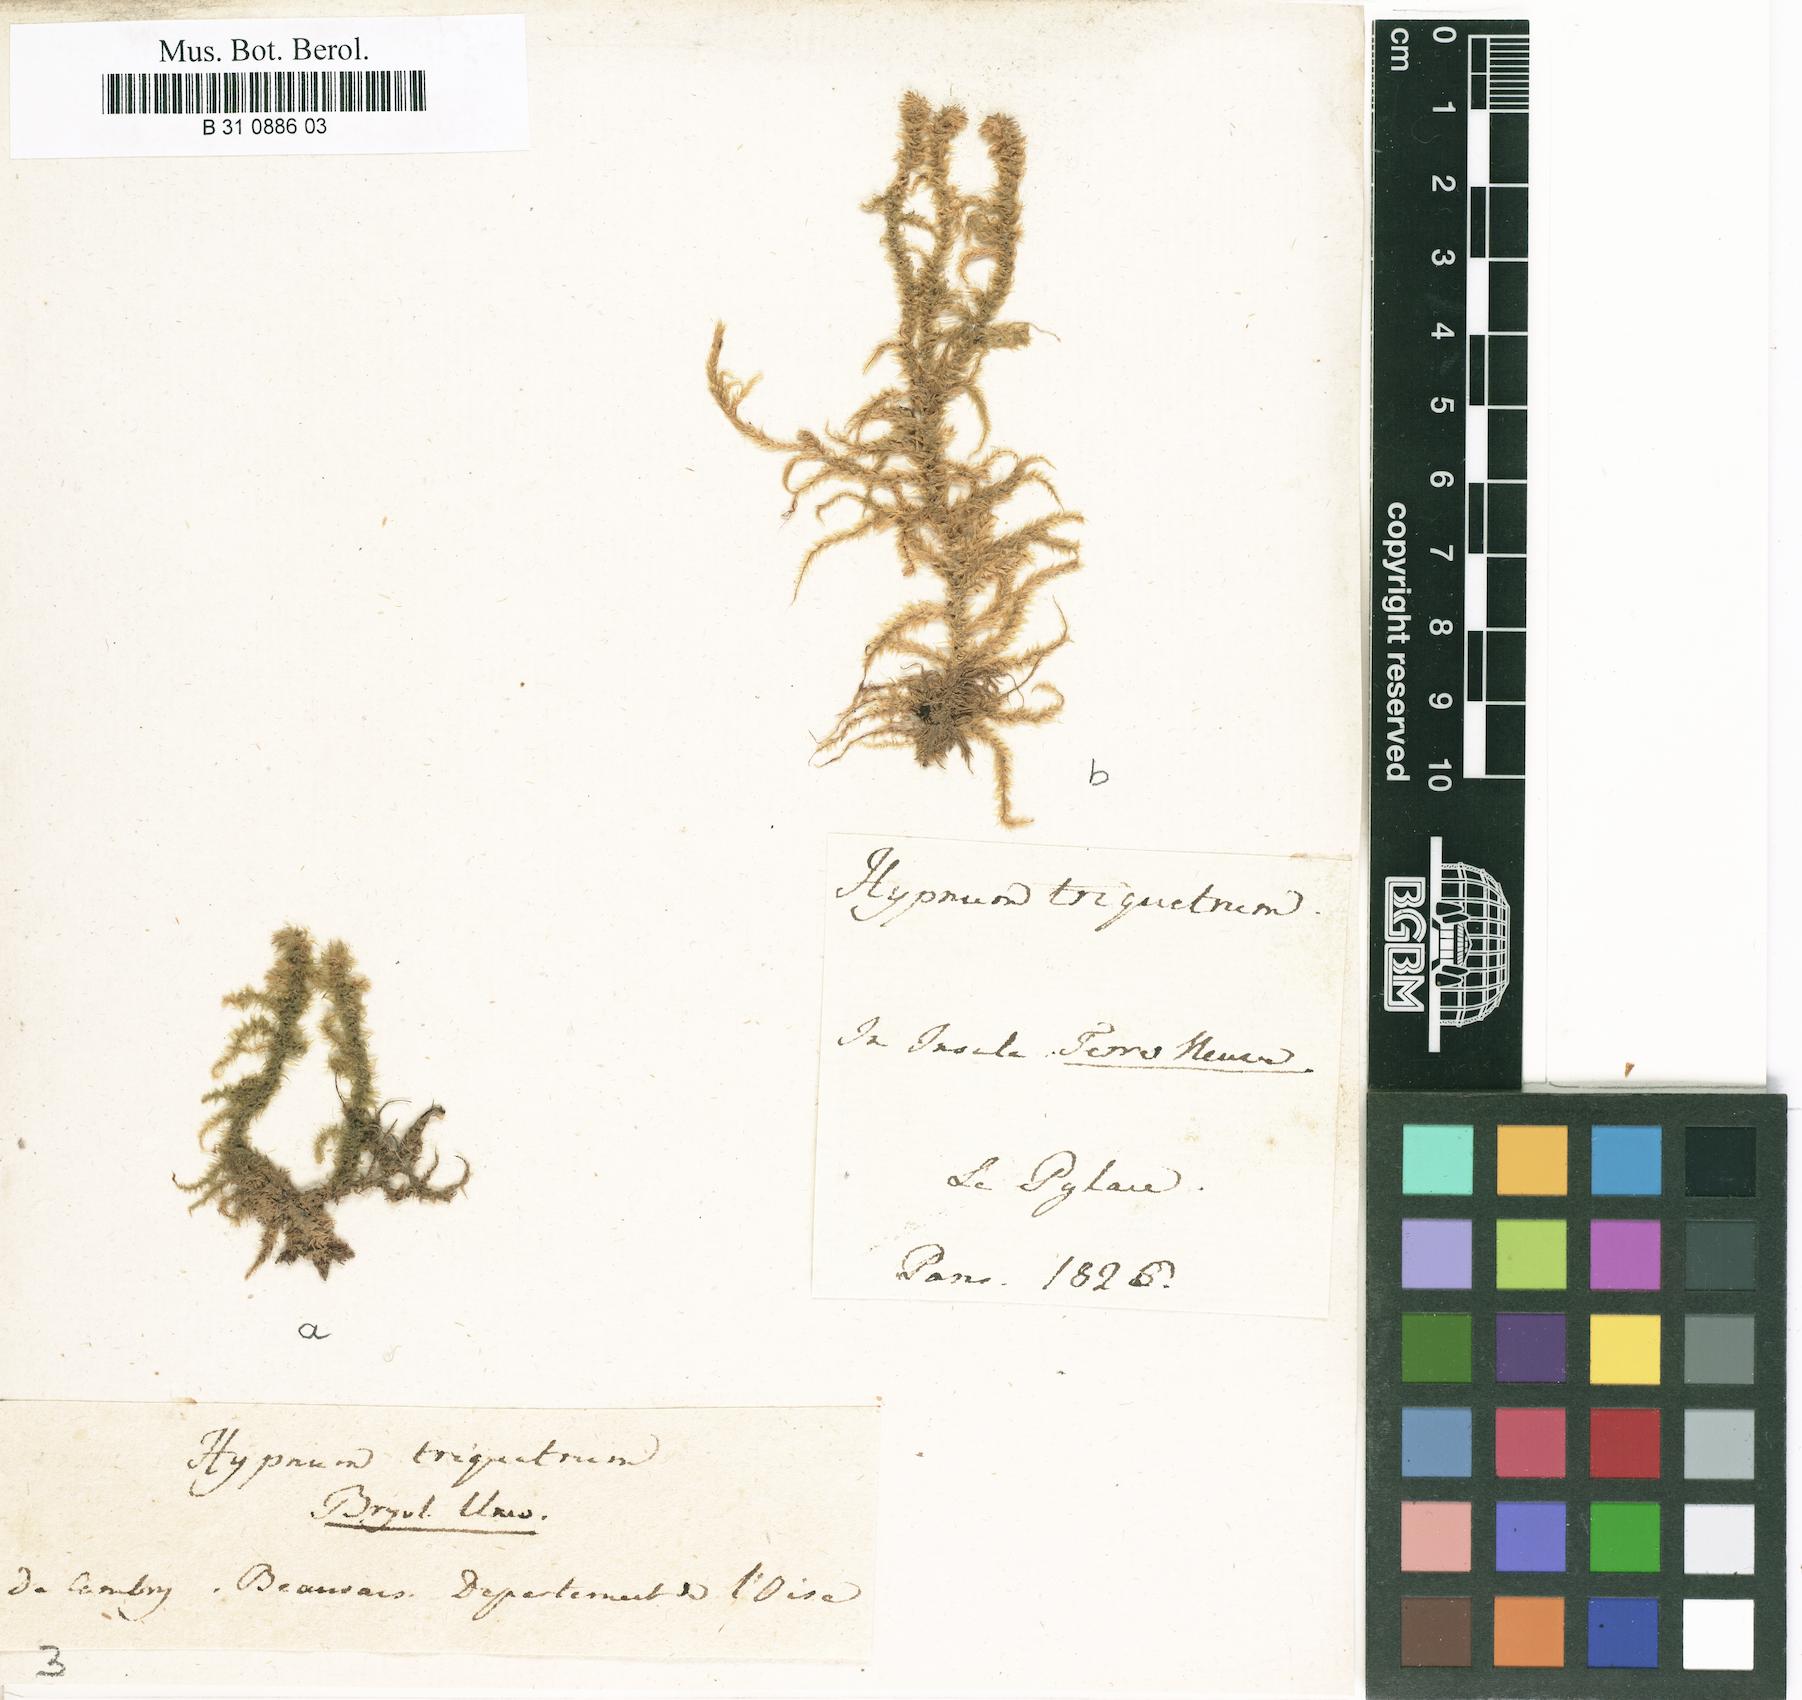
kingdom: Plantae
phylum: Bryophyta
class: Bryopsida
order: Hypnales
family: Hylocomiaceae
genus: Hylocomiadelphus
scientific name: Hylocomiadelphus triquetrus
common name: Rough goose neck moss
